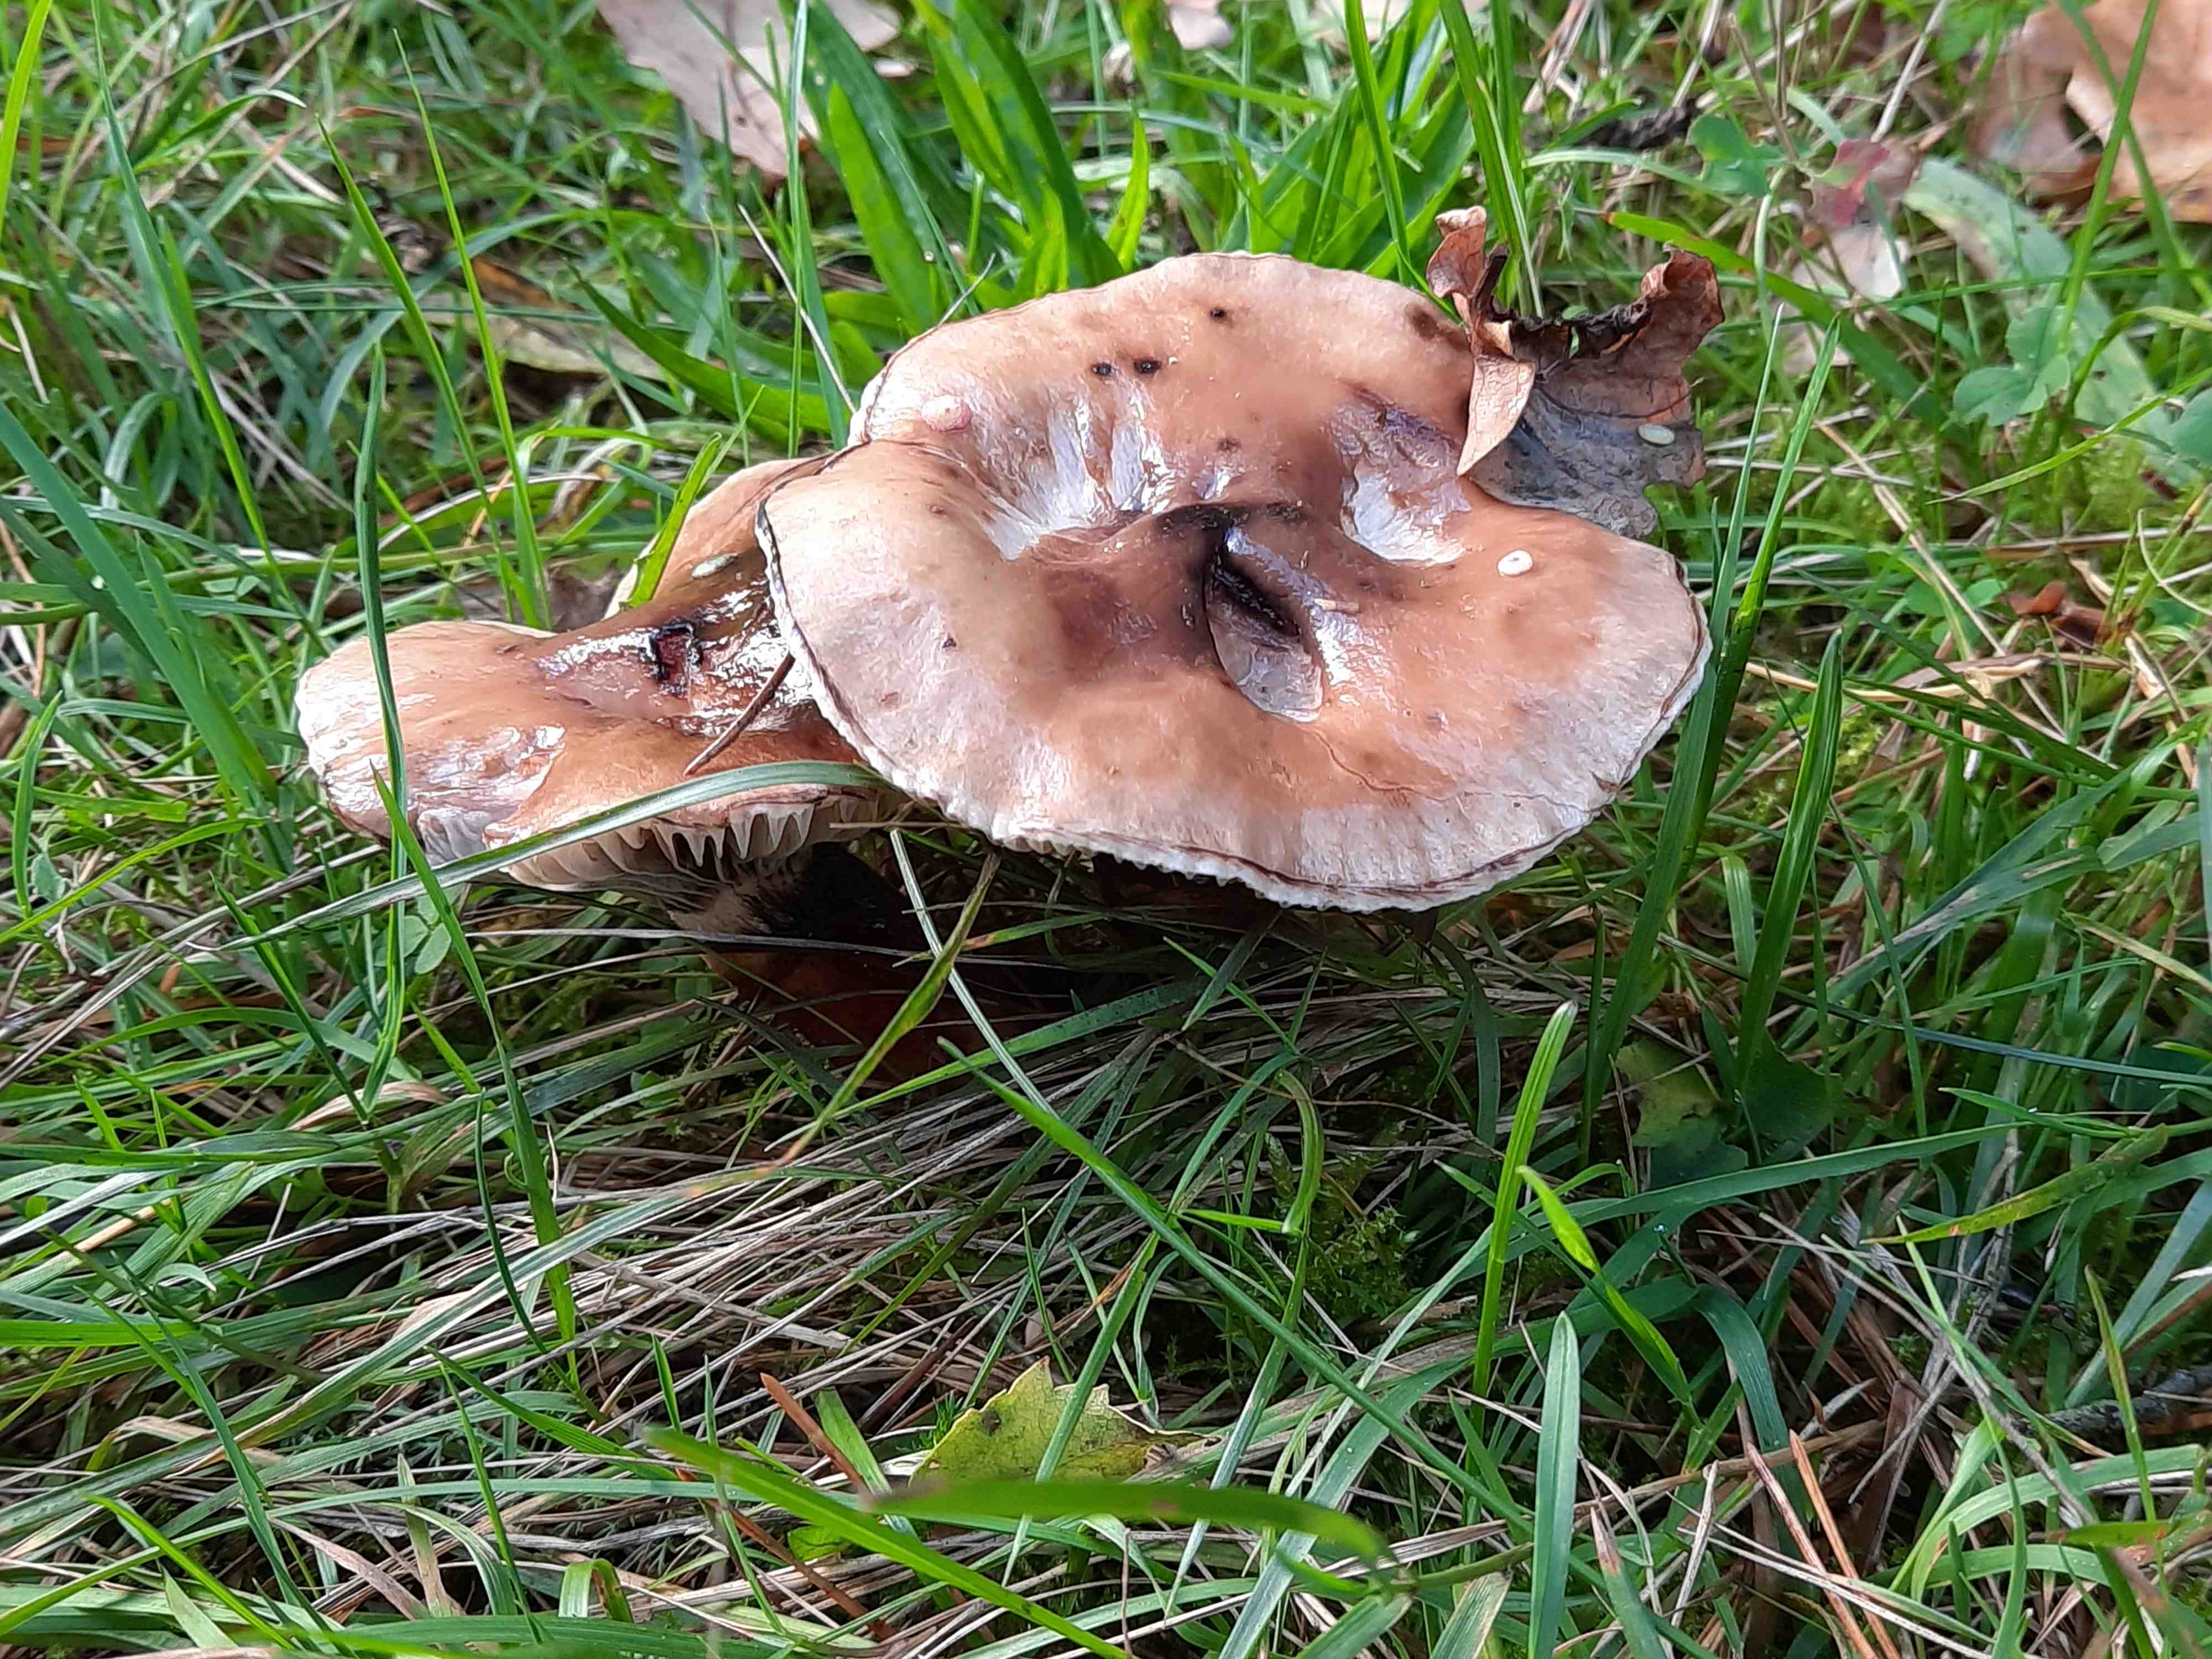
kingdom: Fungi
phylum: Basidiomycota
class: Agaricomycetes
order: Boletales
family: Gomphidiaceae
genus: Gomphidius
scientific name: Gomphidius glutinosus
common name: grå slimslør
